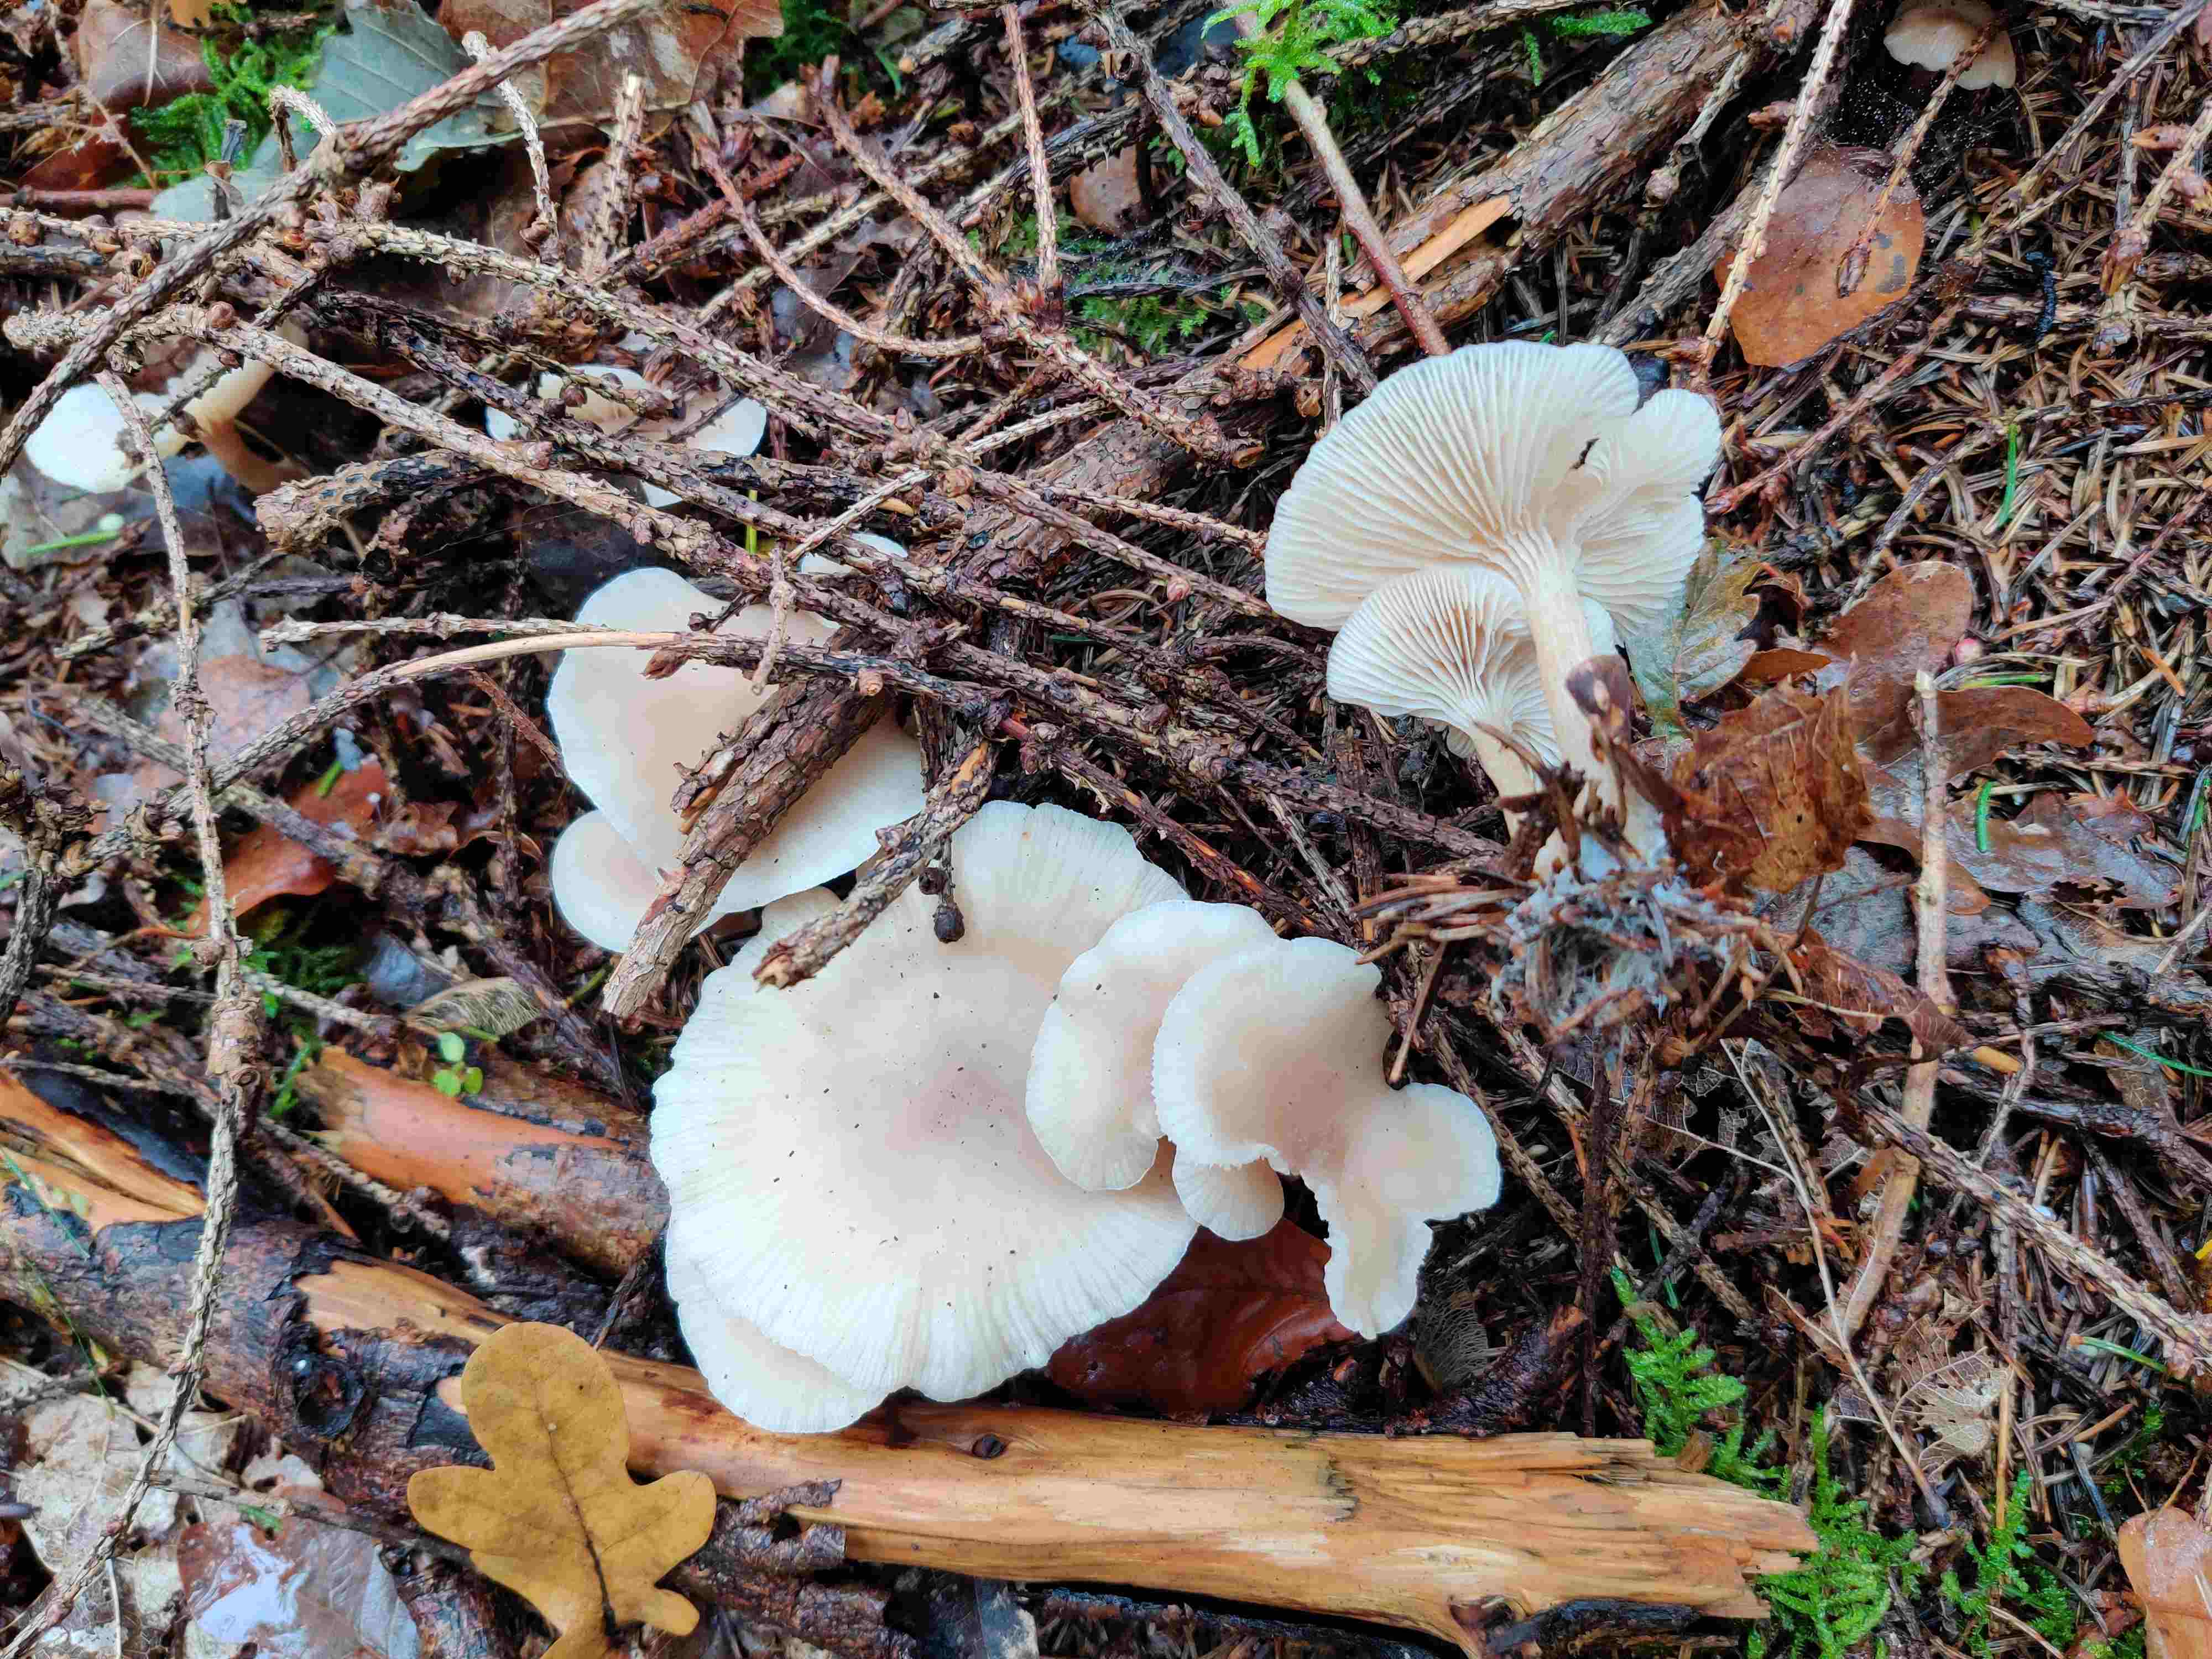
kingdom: Fungi
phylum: Basidiomycota
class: Agaricomycetes
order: Agaricales
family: Tricholomataceae
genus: Clitocybe
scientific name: Clitocybe fragrans
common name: vellugtende tragthat
